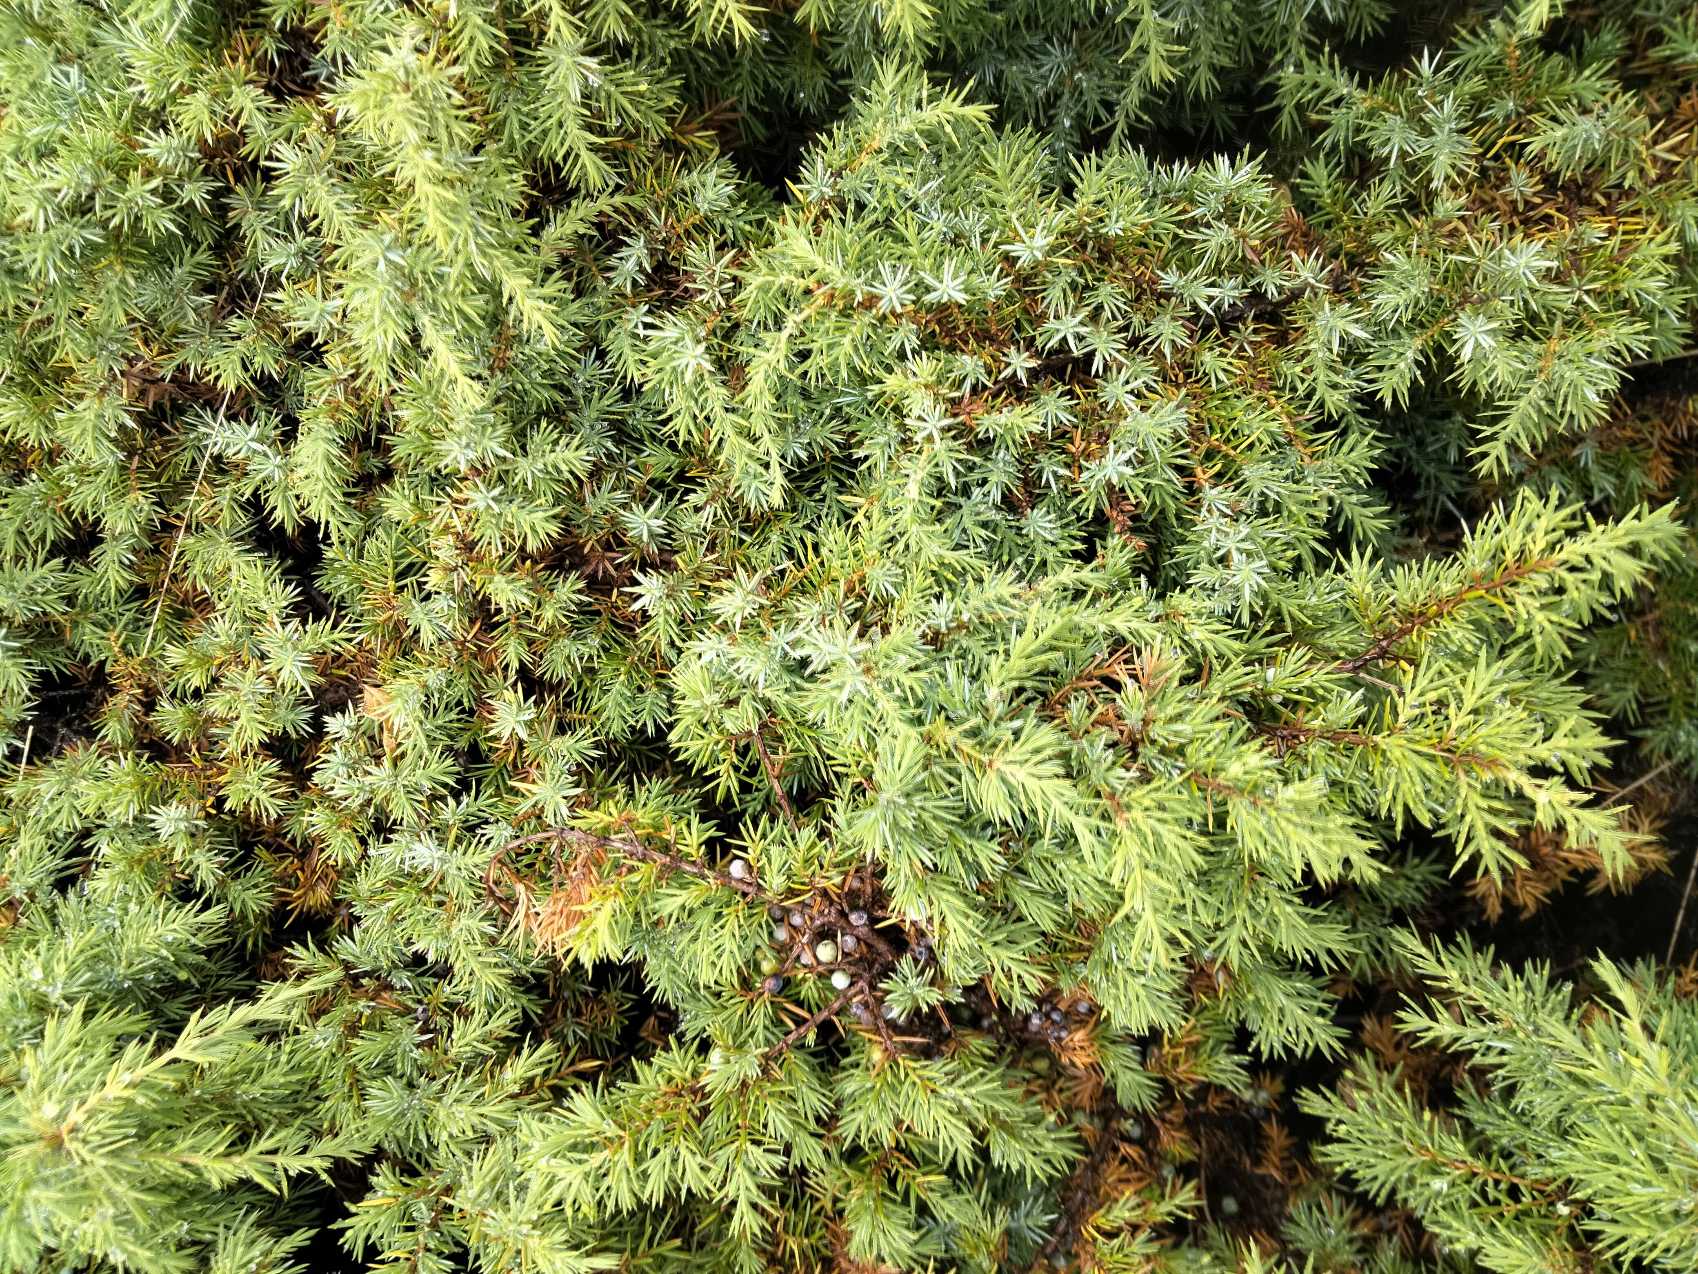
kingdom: Plantae
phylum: Tracheophyta
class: Pinopsida
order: Pinales
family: Cupressaceae
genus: Juniperus
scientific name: Juniperus communis
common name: Almindelig ene
